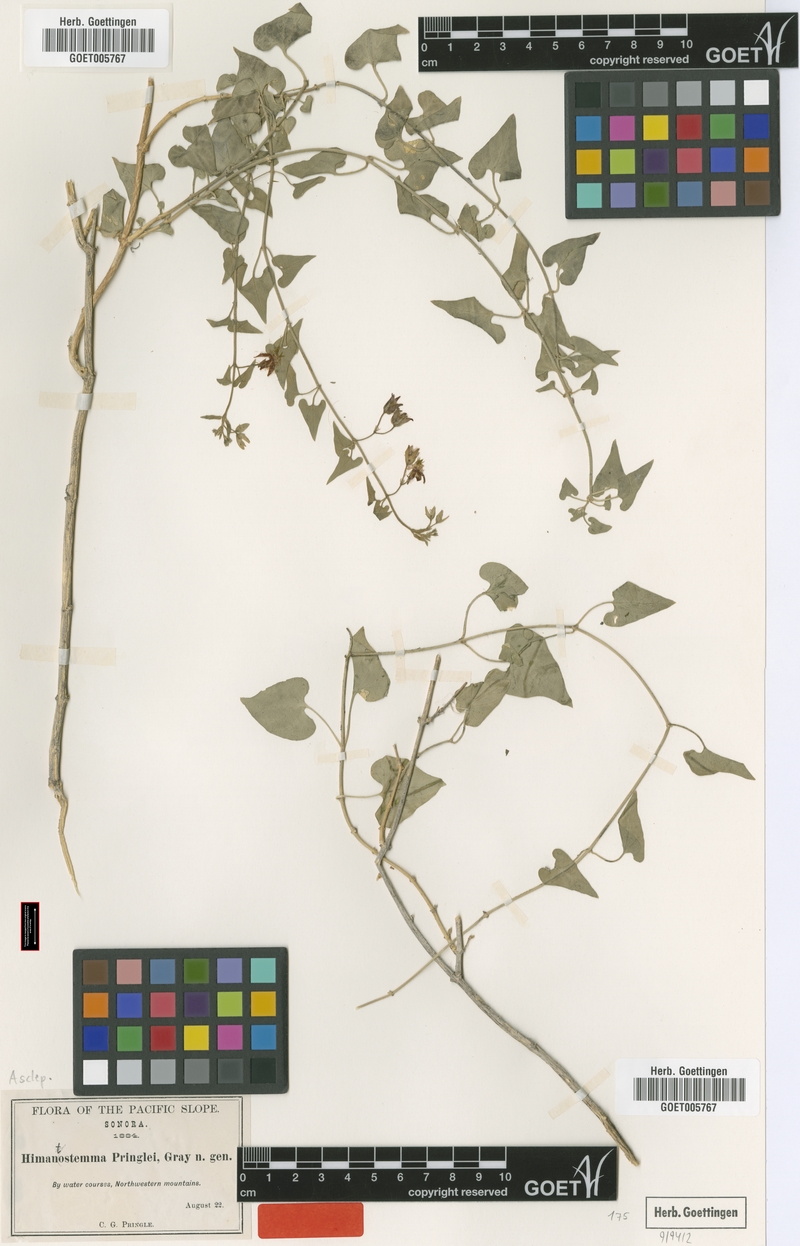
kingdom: Plantae
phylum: Tracheophyta
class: Magnoliopsida
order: Gentianales
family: Apocynaceae
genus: Metastelma
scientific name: Metastelma pringlei
